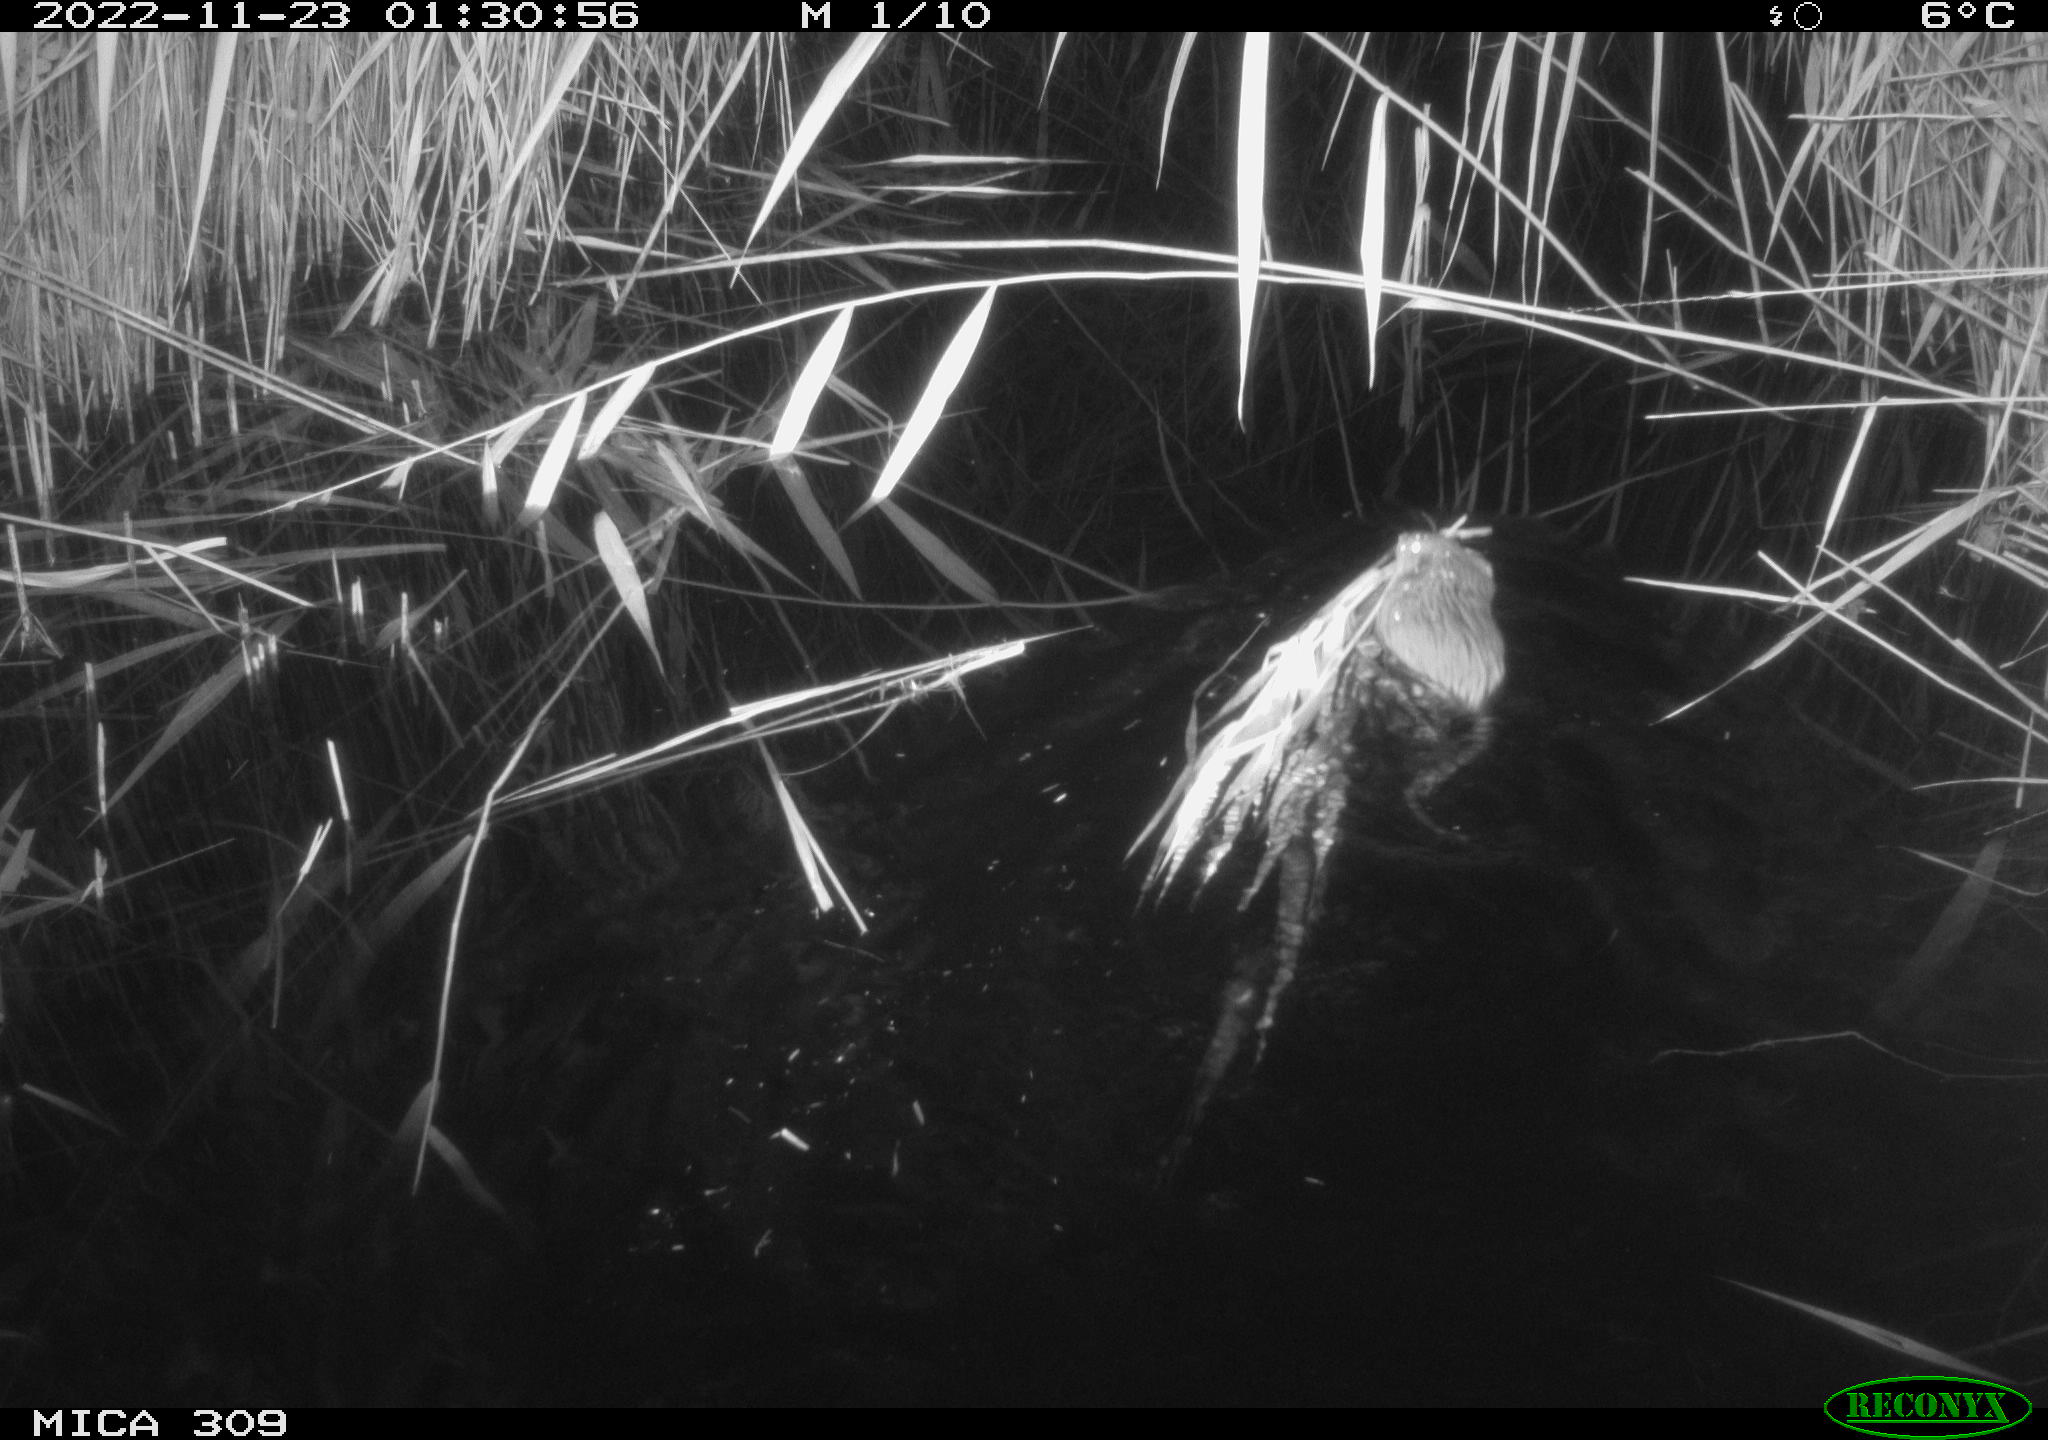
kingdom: Animalia
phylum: Chordata
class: Mammalia
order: Rodentia
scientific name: Rodentia
